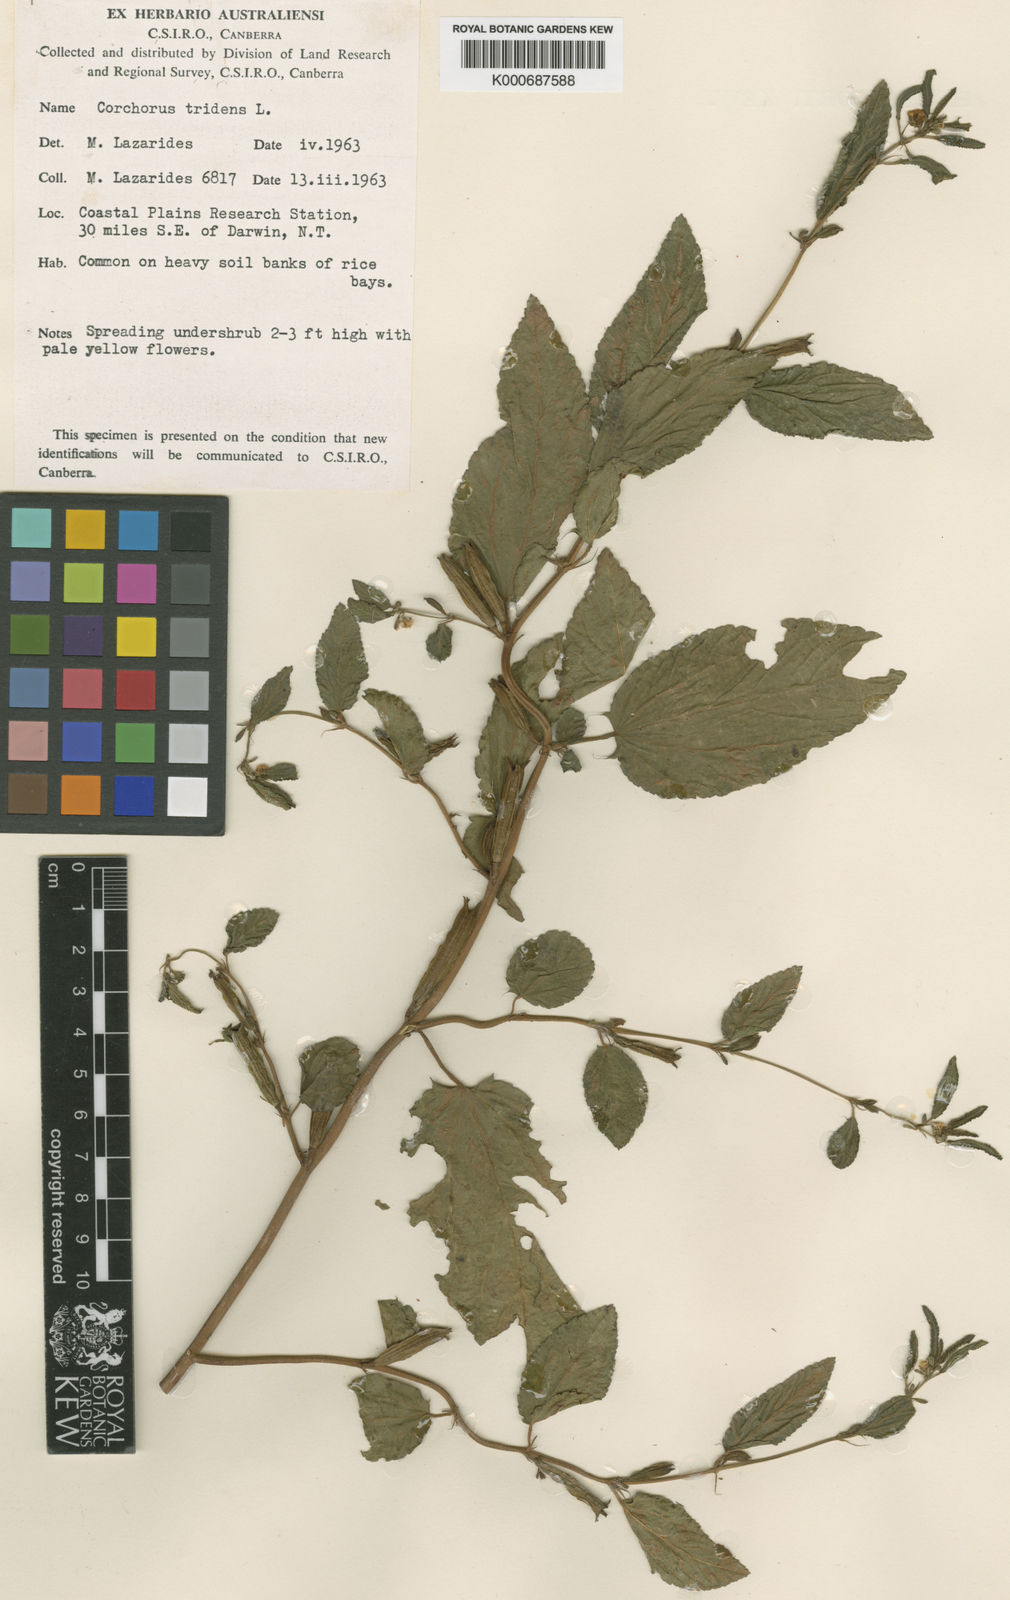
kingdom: Plantae
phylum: Tracheophyta
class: Magnoliopsida
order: Malvales
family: Malvaceae
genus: Corchorus
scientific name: Corchorus tridens
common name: Wild jute
